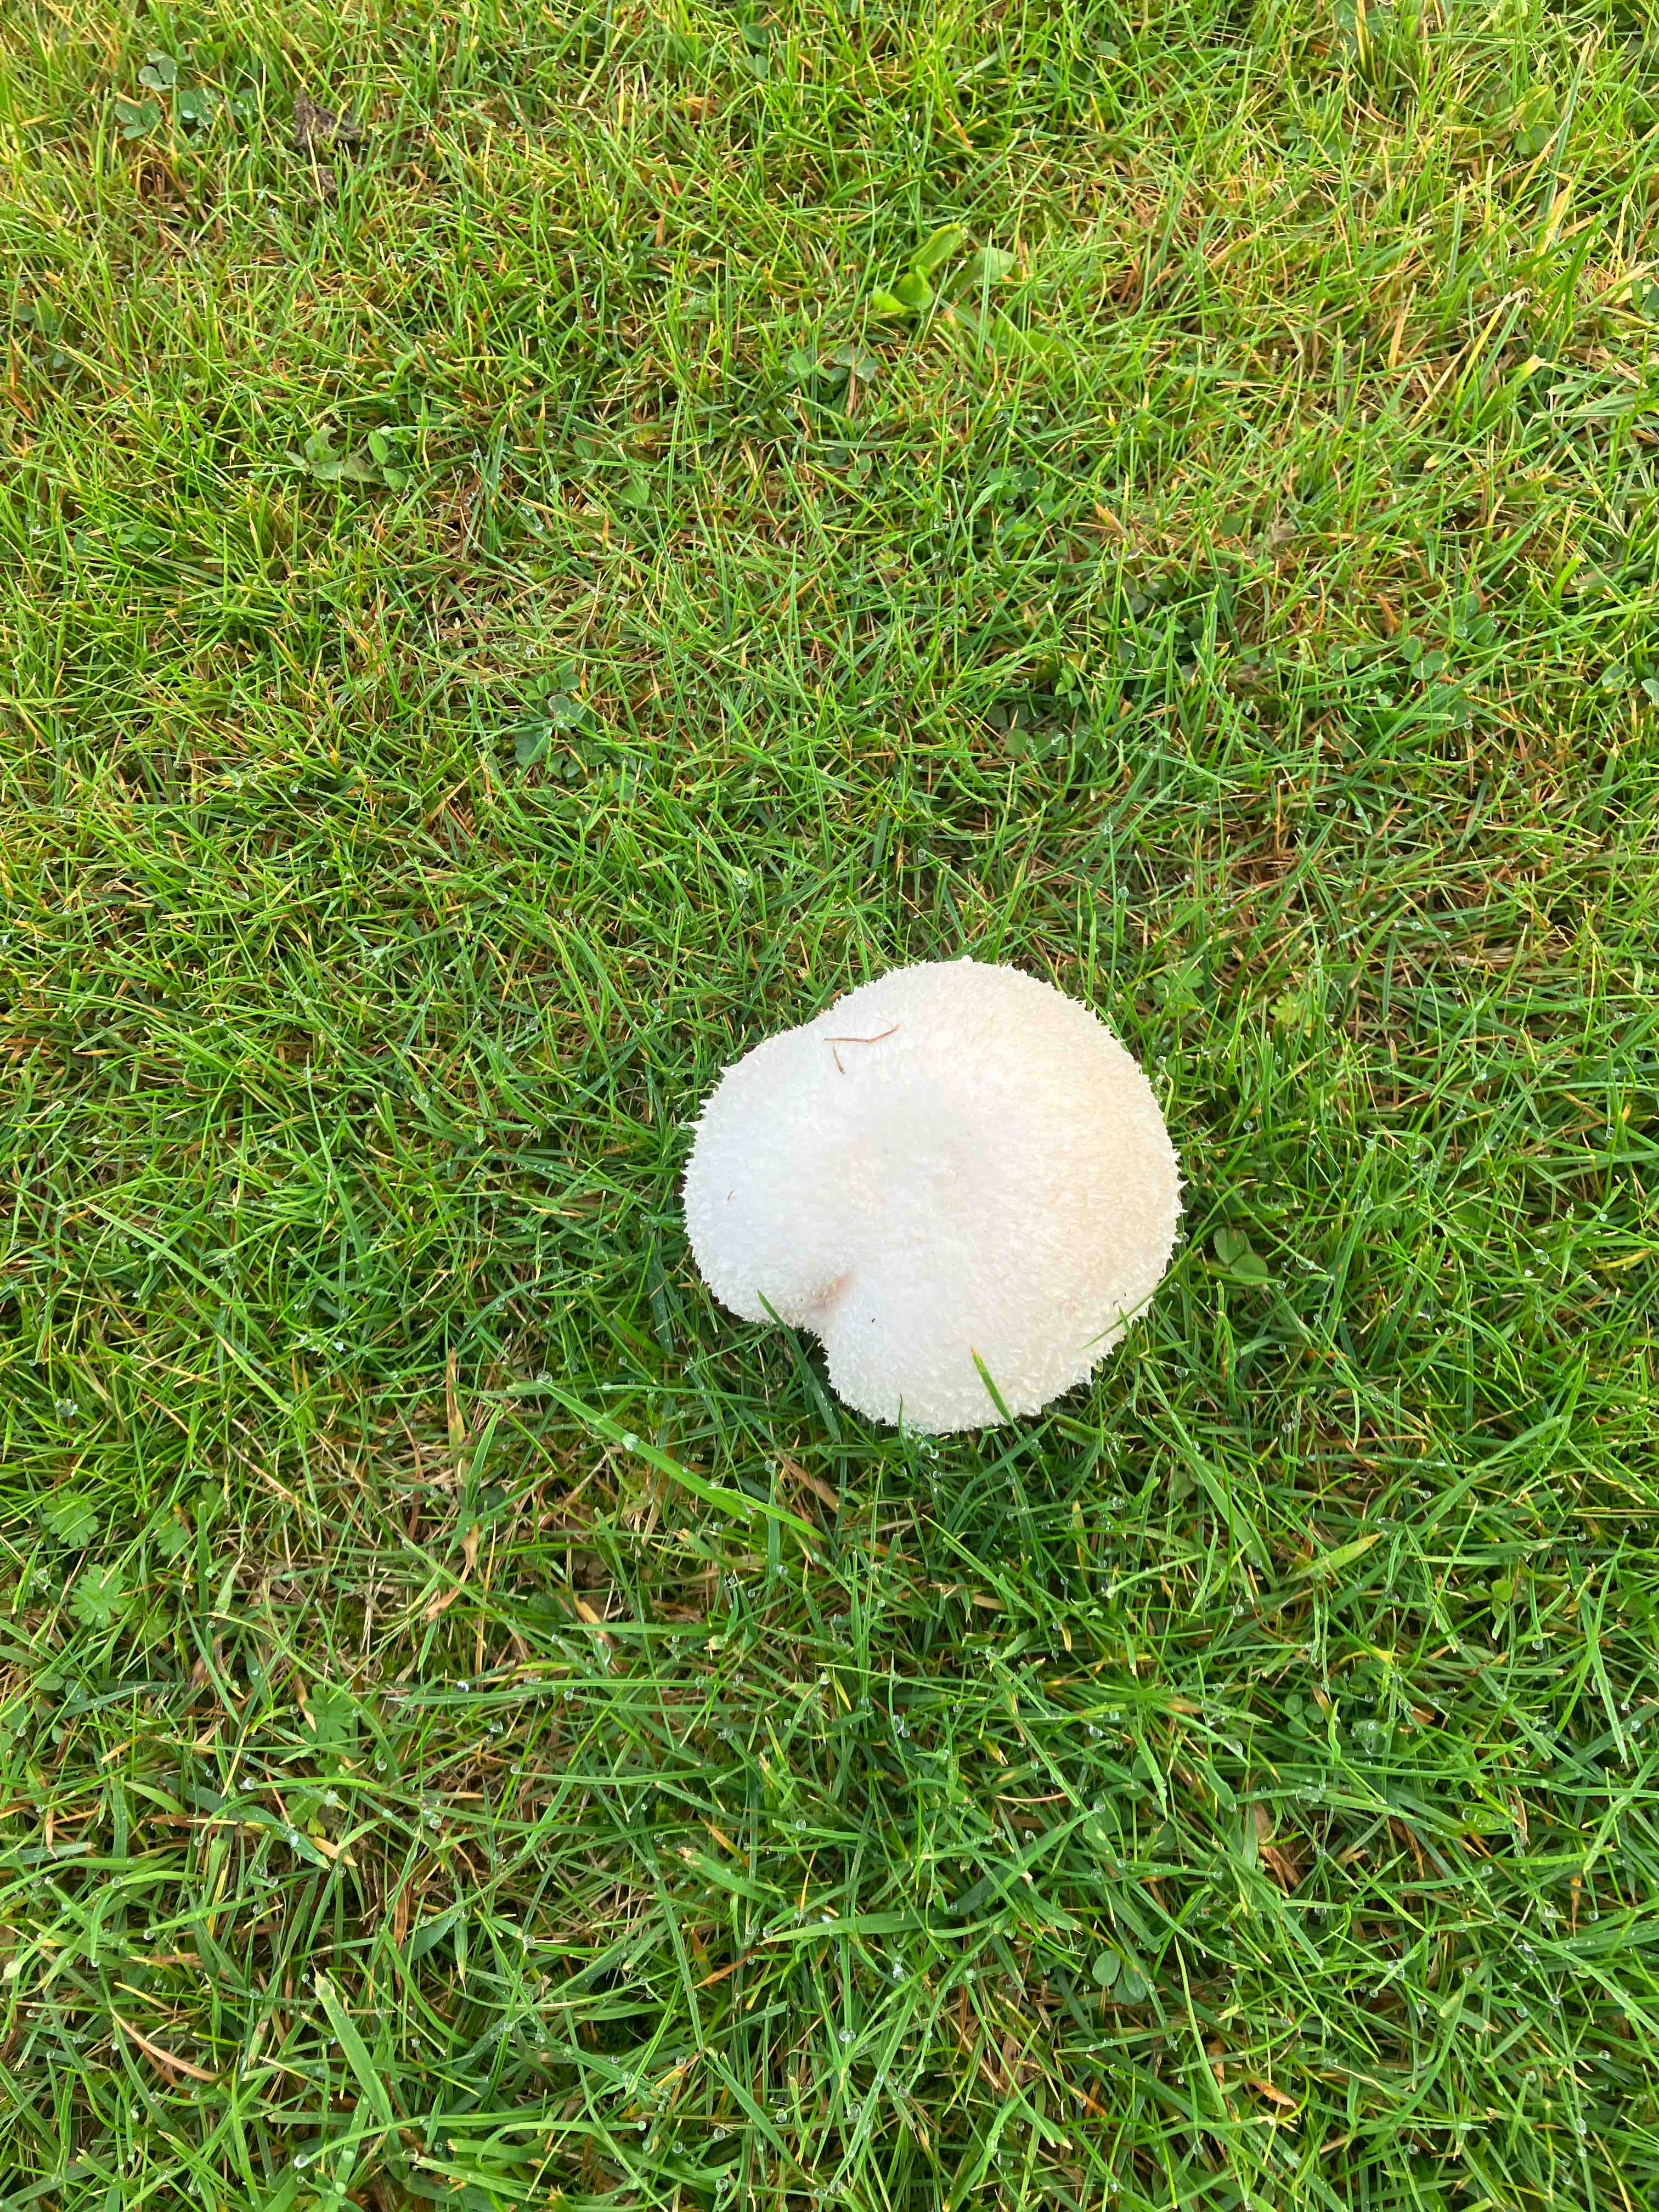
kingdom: Fungi
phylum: Basidiomycota
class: Agaricomycetes
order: Agaricales
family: Agaricaceae
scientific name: Agaricaceae
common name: champignonfamilien
